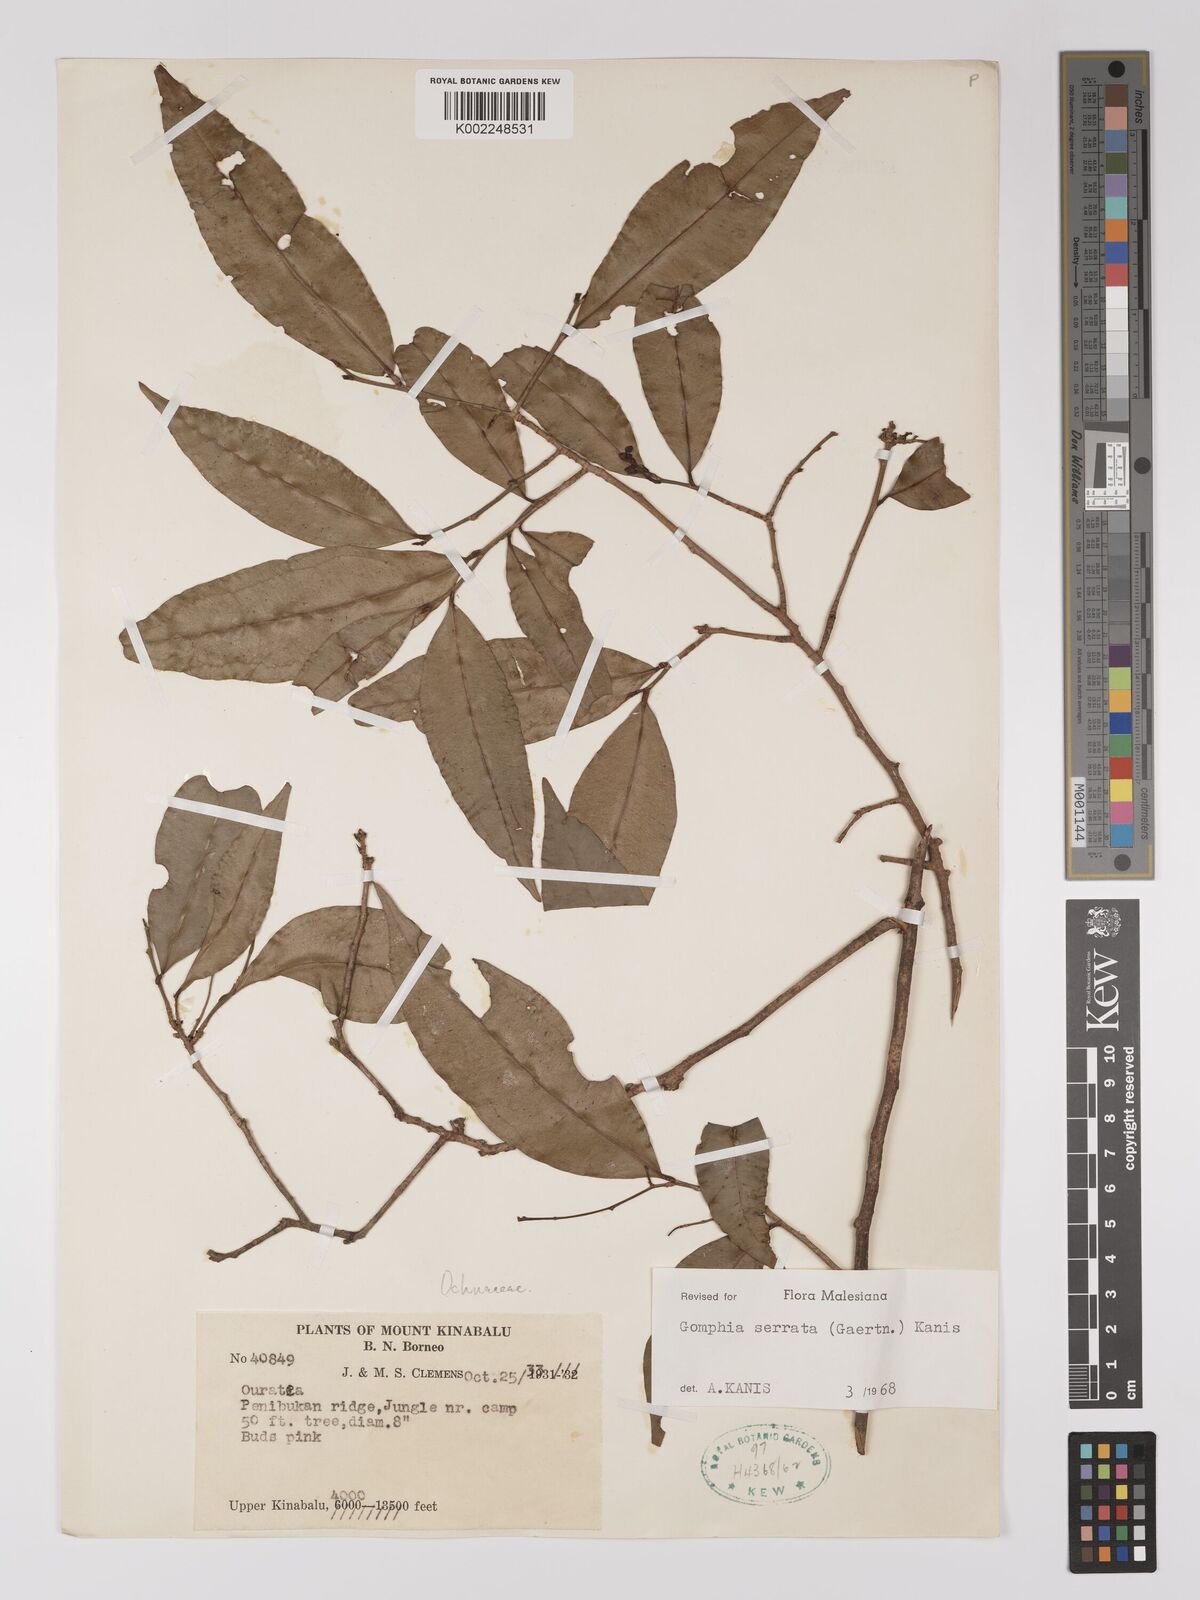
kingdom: Plantae
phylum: Tracheophyta
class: Magnoliopsida
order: Malpighiales
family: Ochnaceae
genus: Gomphia
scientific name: Gomphia serrata
